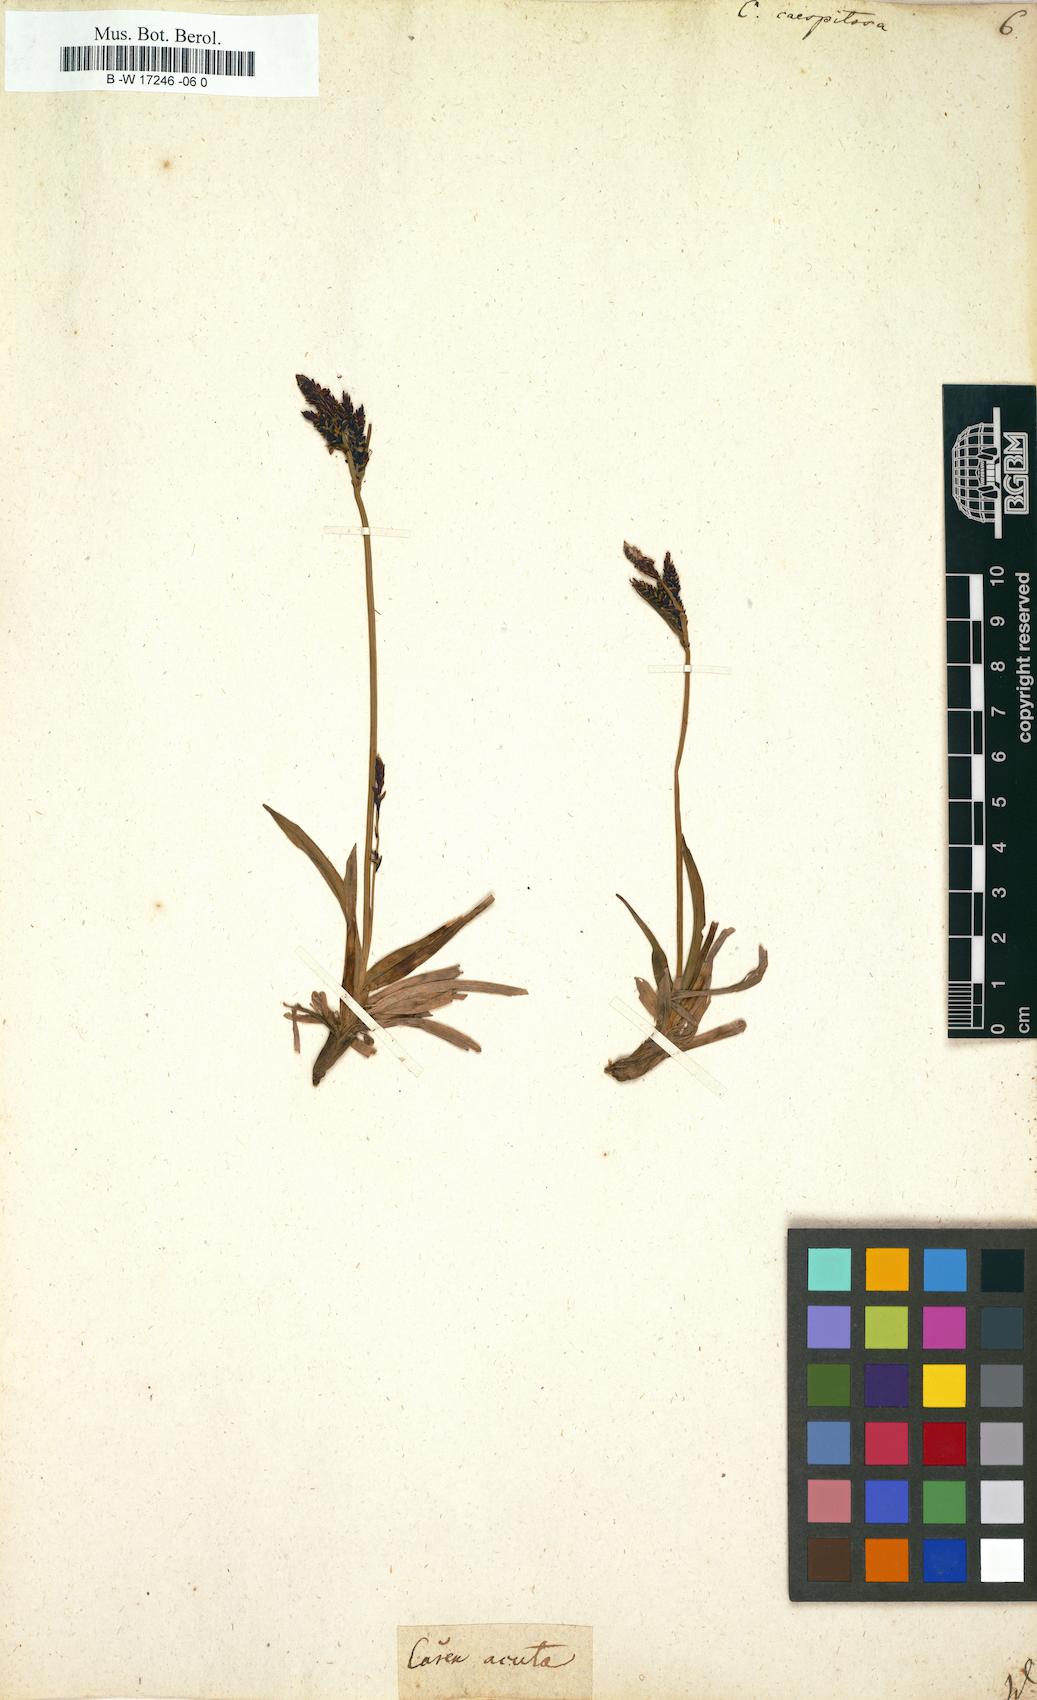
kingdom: Plantae
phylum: Tracheophyta
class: Liliopsida
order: Poales
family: Cyperaceae
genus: Carex
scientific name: Carex cespitosa
